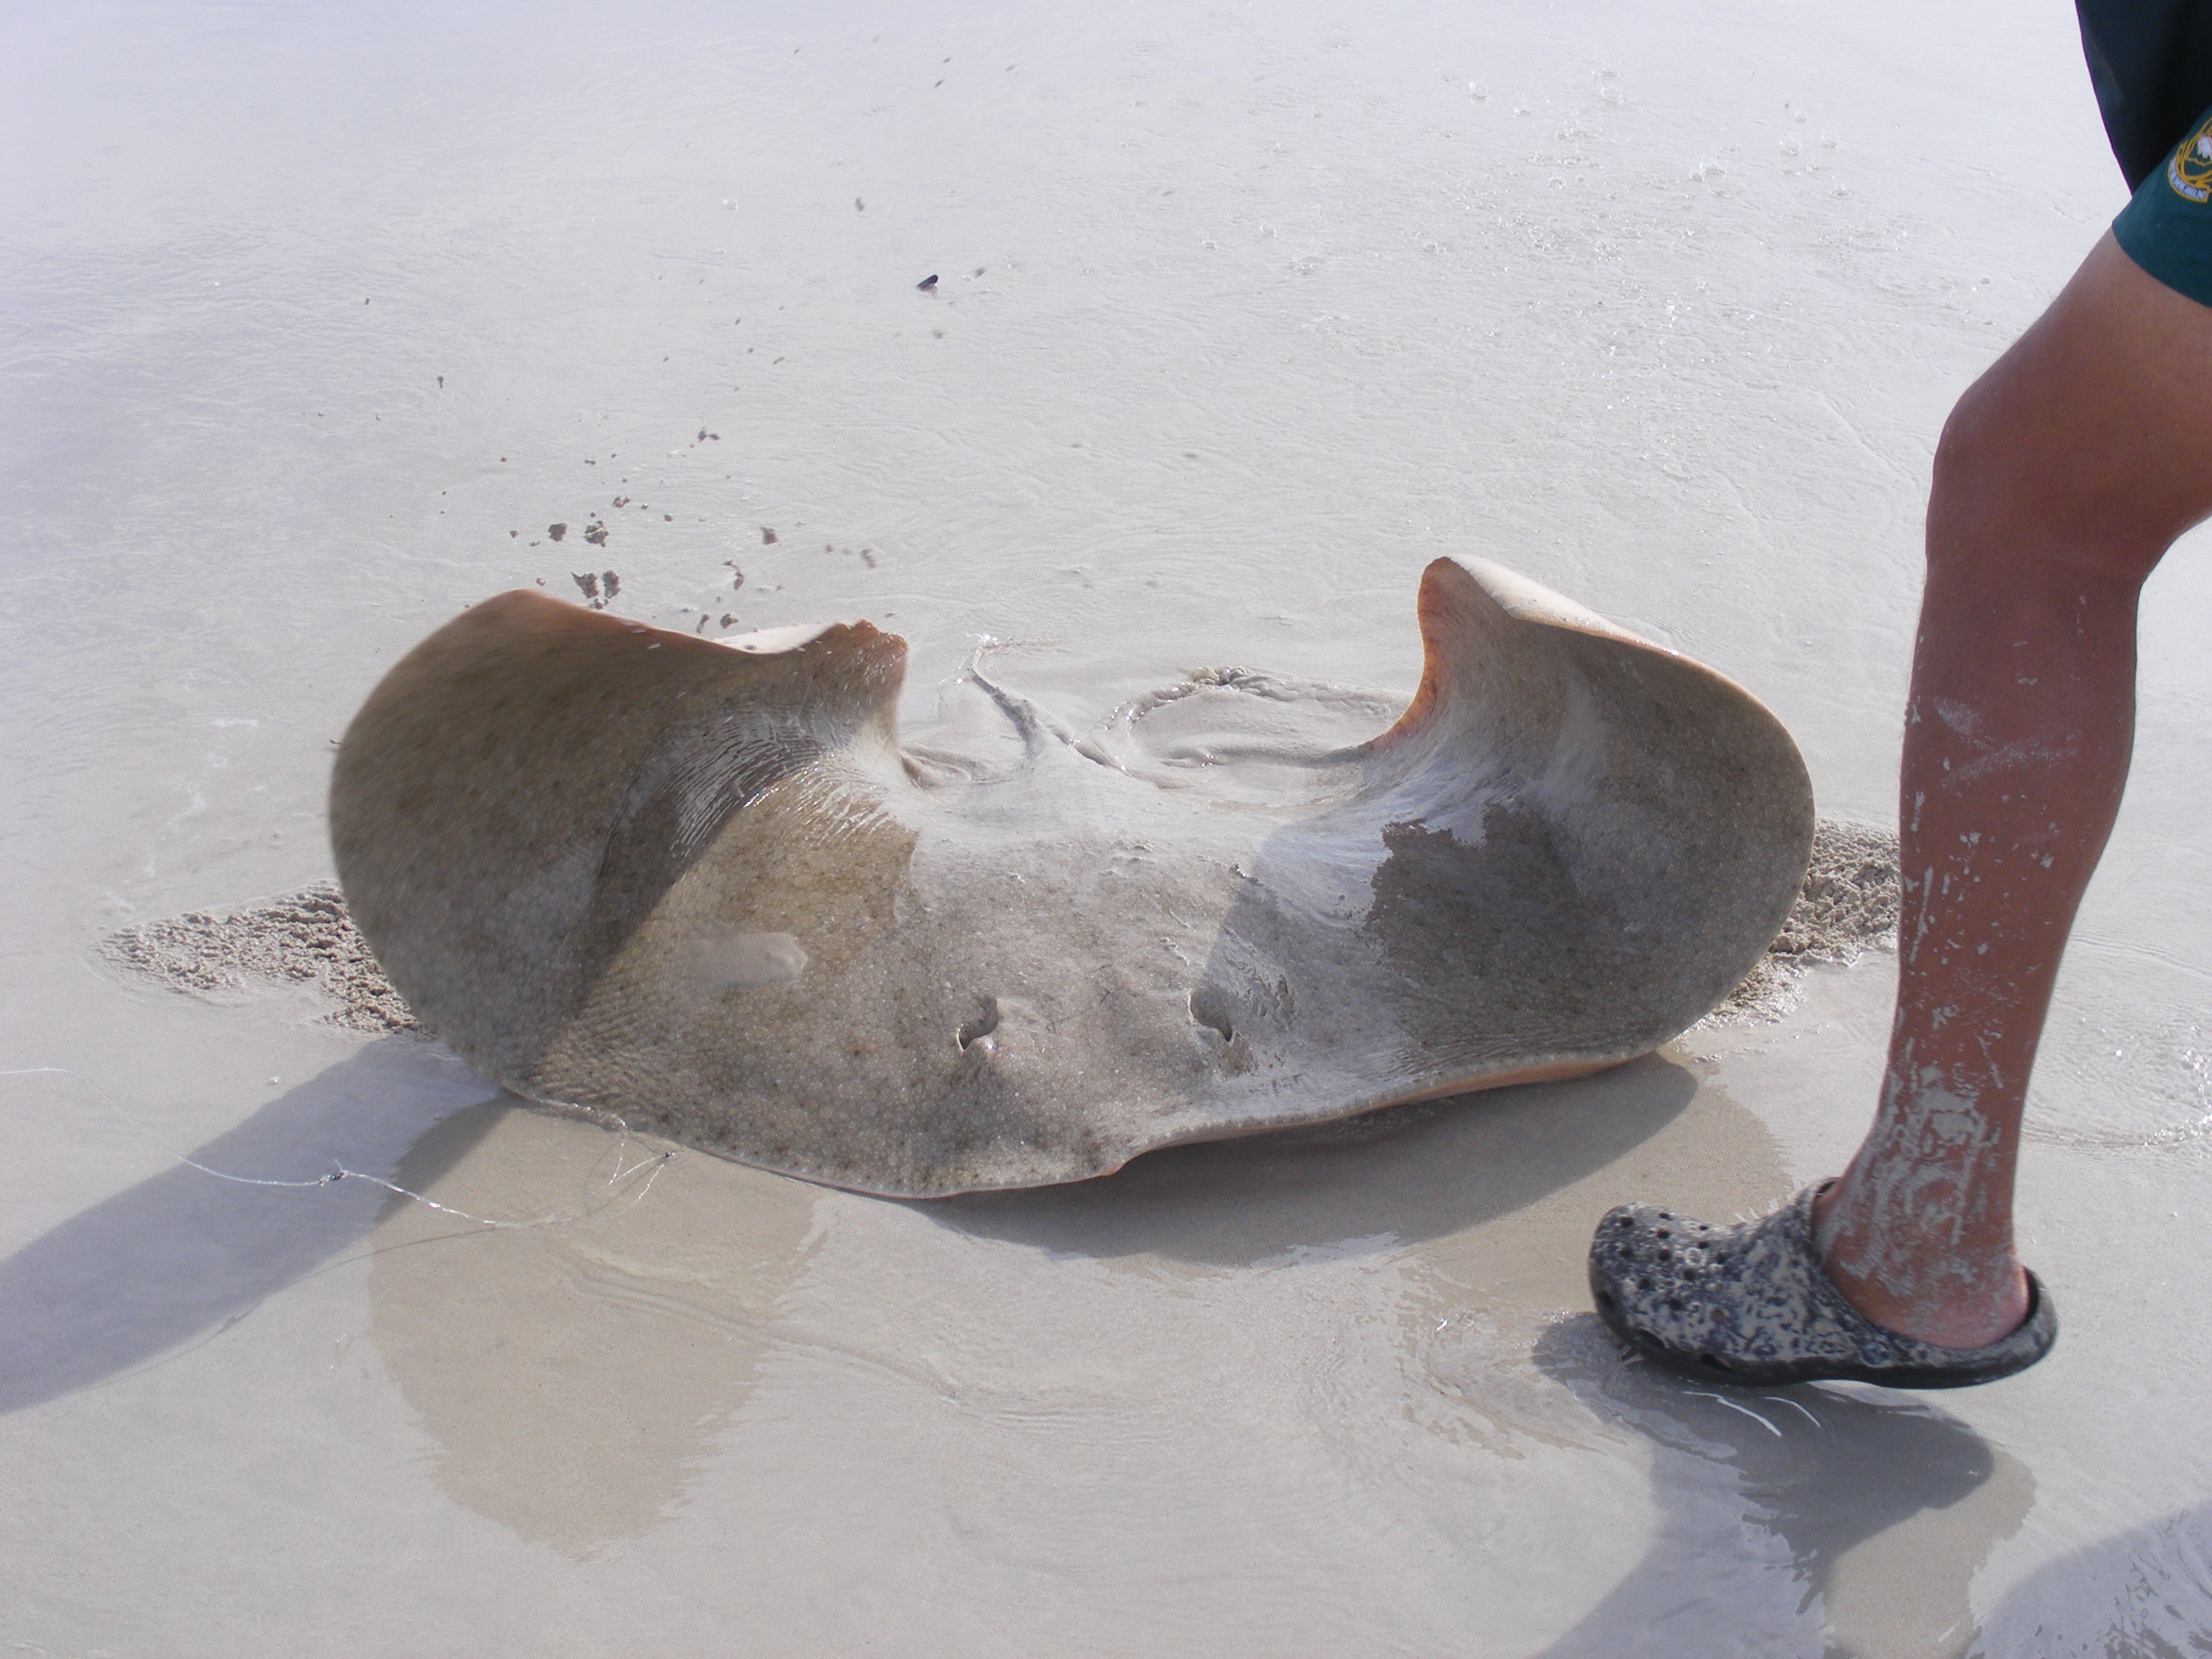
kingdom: Animalia
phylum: Chordata
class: Elasmobranchii
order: Myliobatiformes
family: Gymnuridae
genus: Gymnura
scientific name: Gymnura natalensis
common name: Backwater butterfly ray
